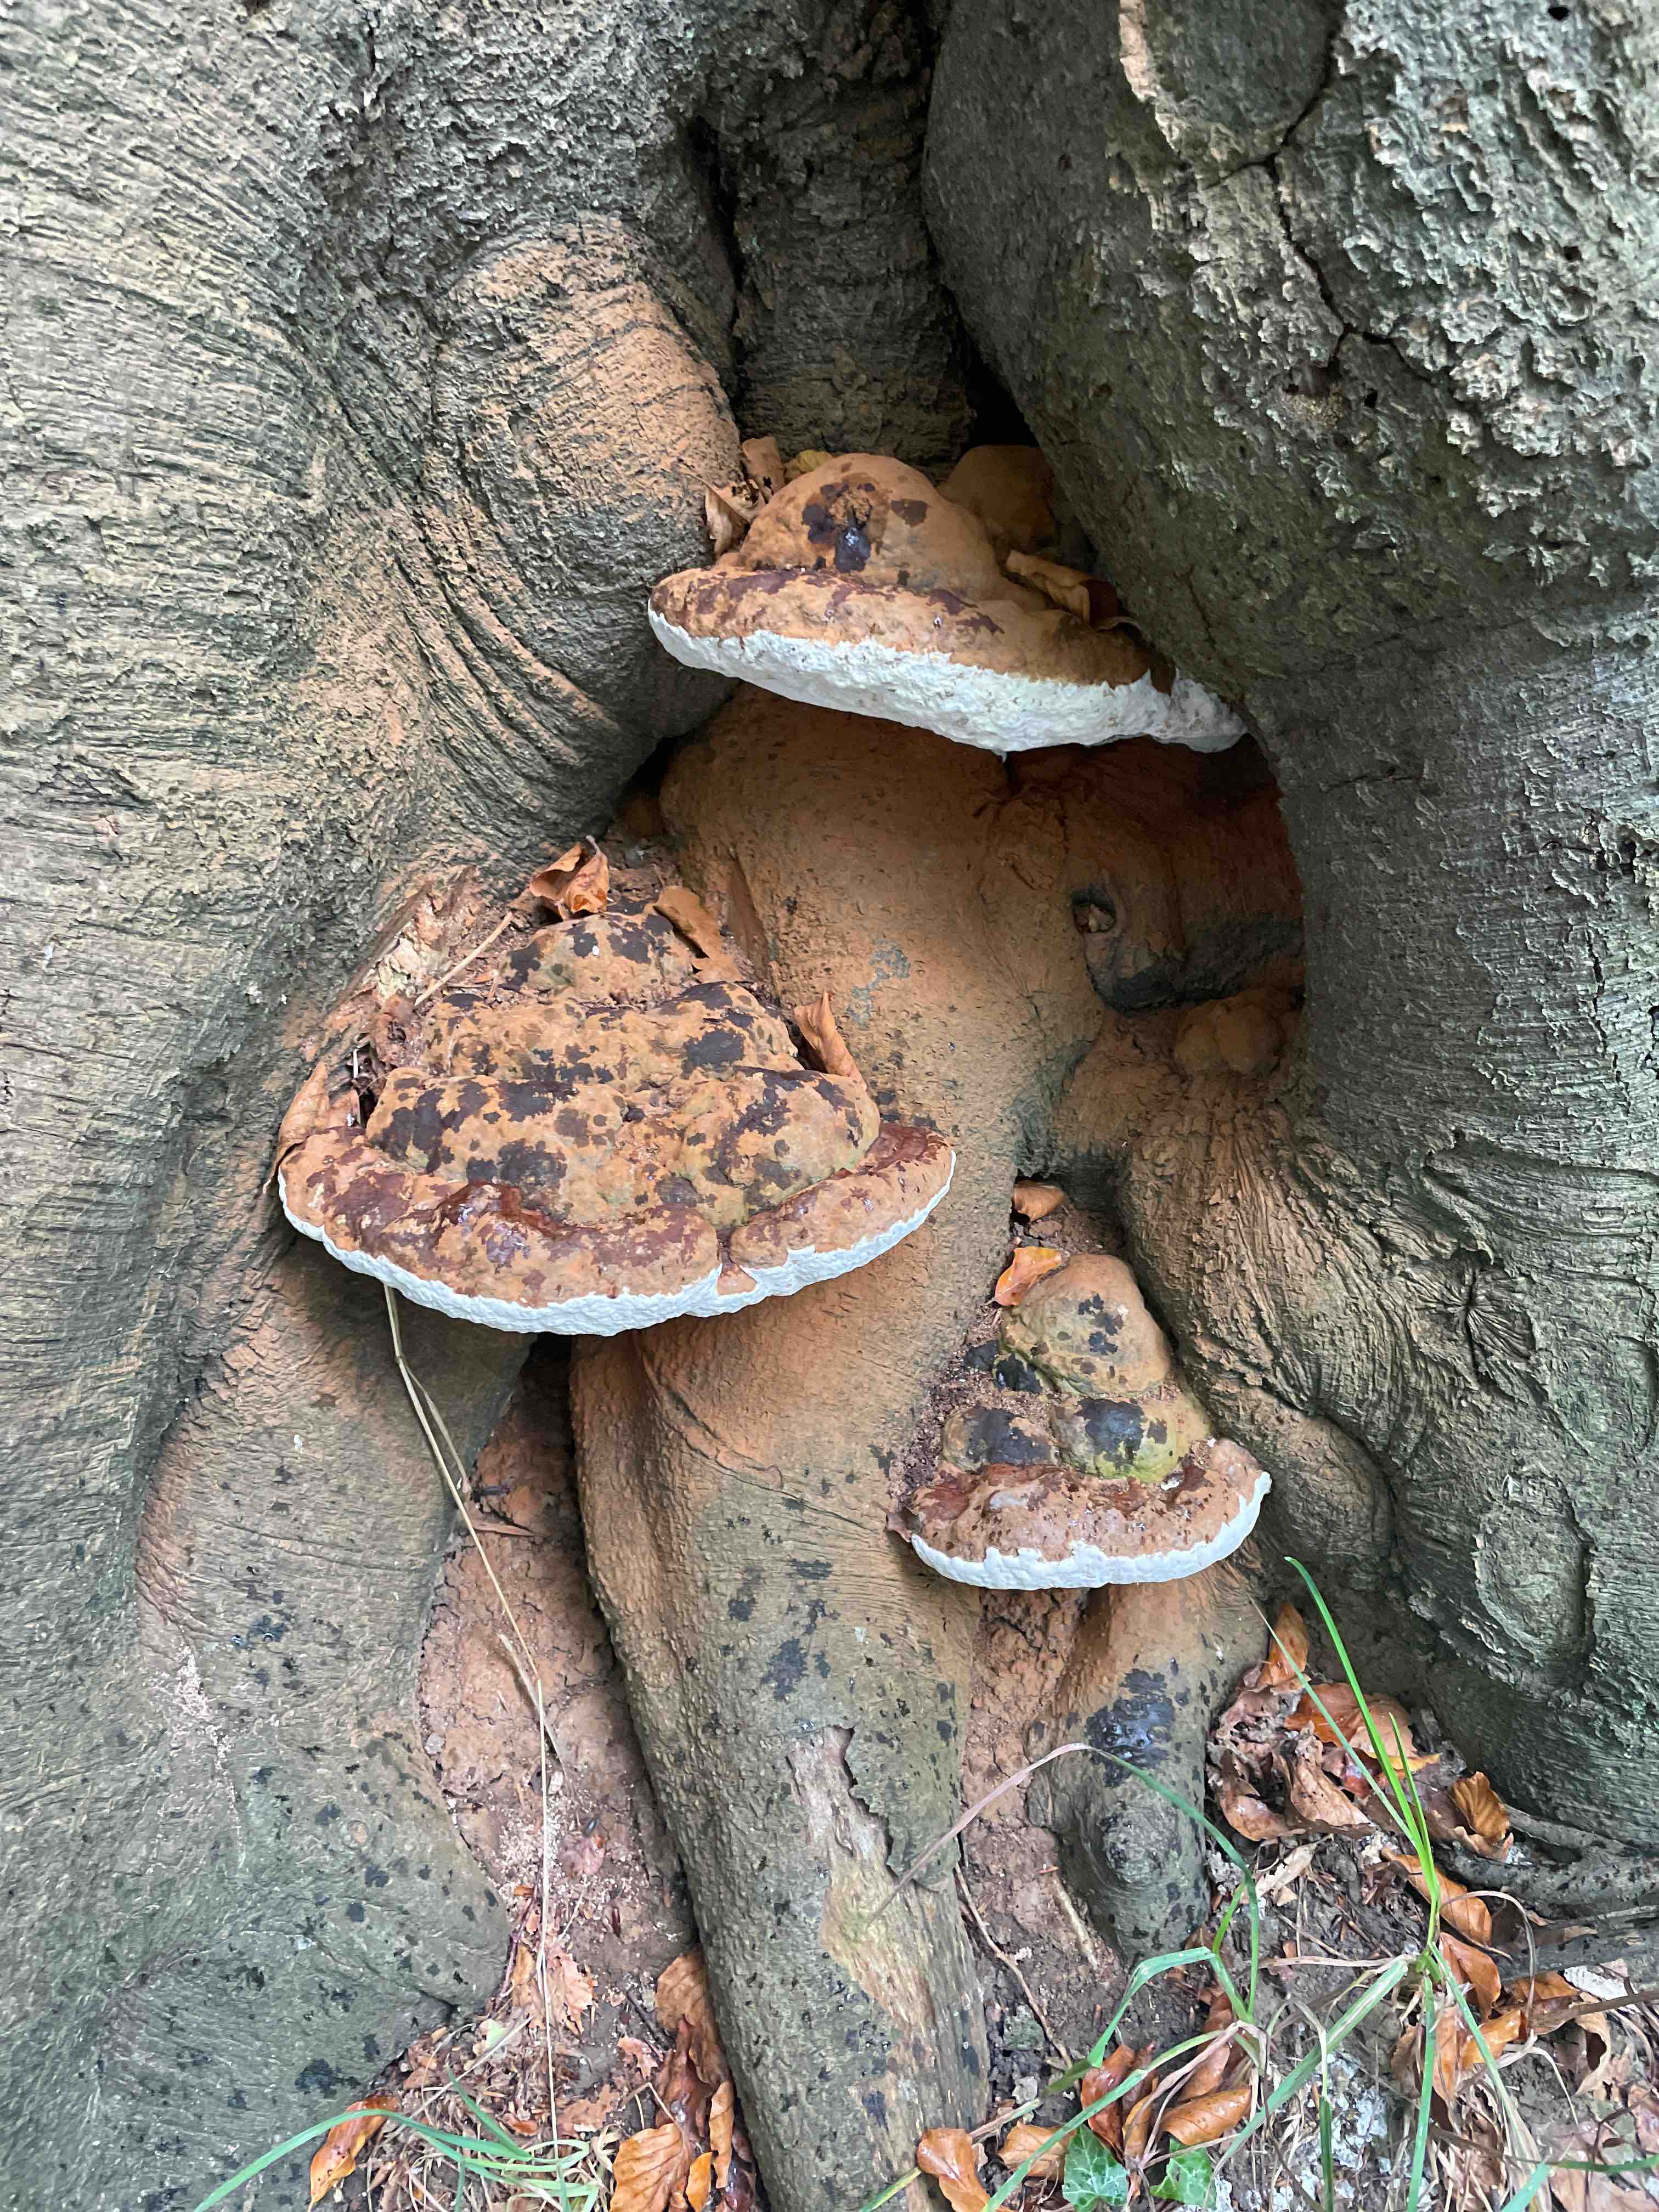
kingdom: Fungi
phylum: Basidiomycota
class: Agaricomycetes
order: Polyporales
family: Polyporaceae
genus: Ganoderma
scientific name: Ganoderma pfeifferi
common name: kobberrød lakporesvamp
